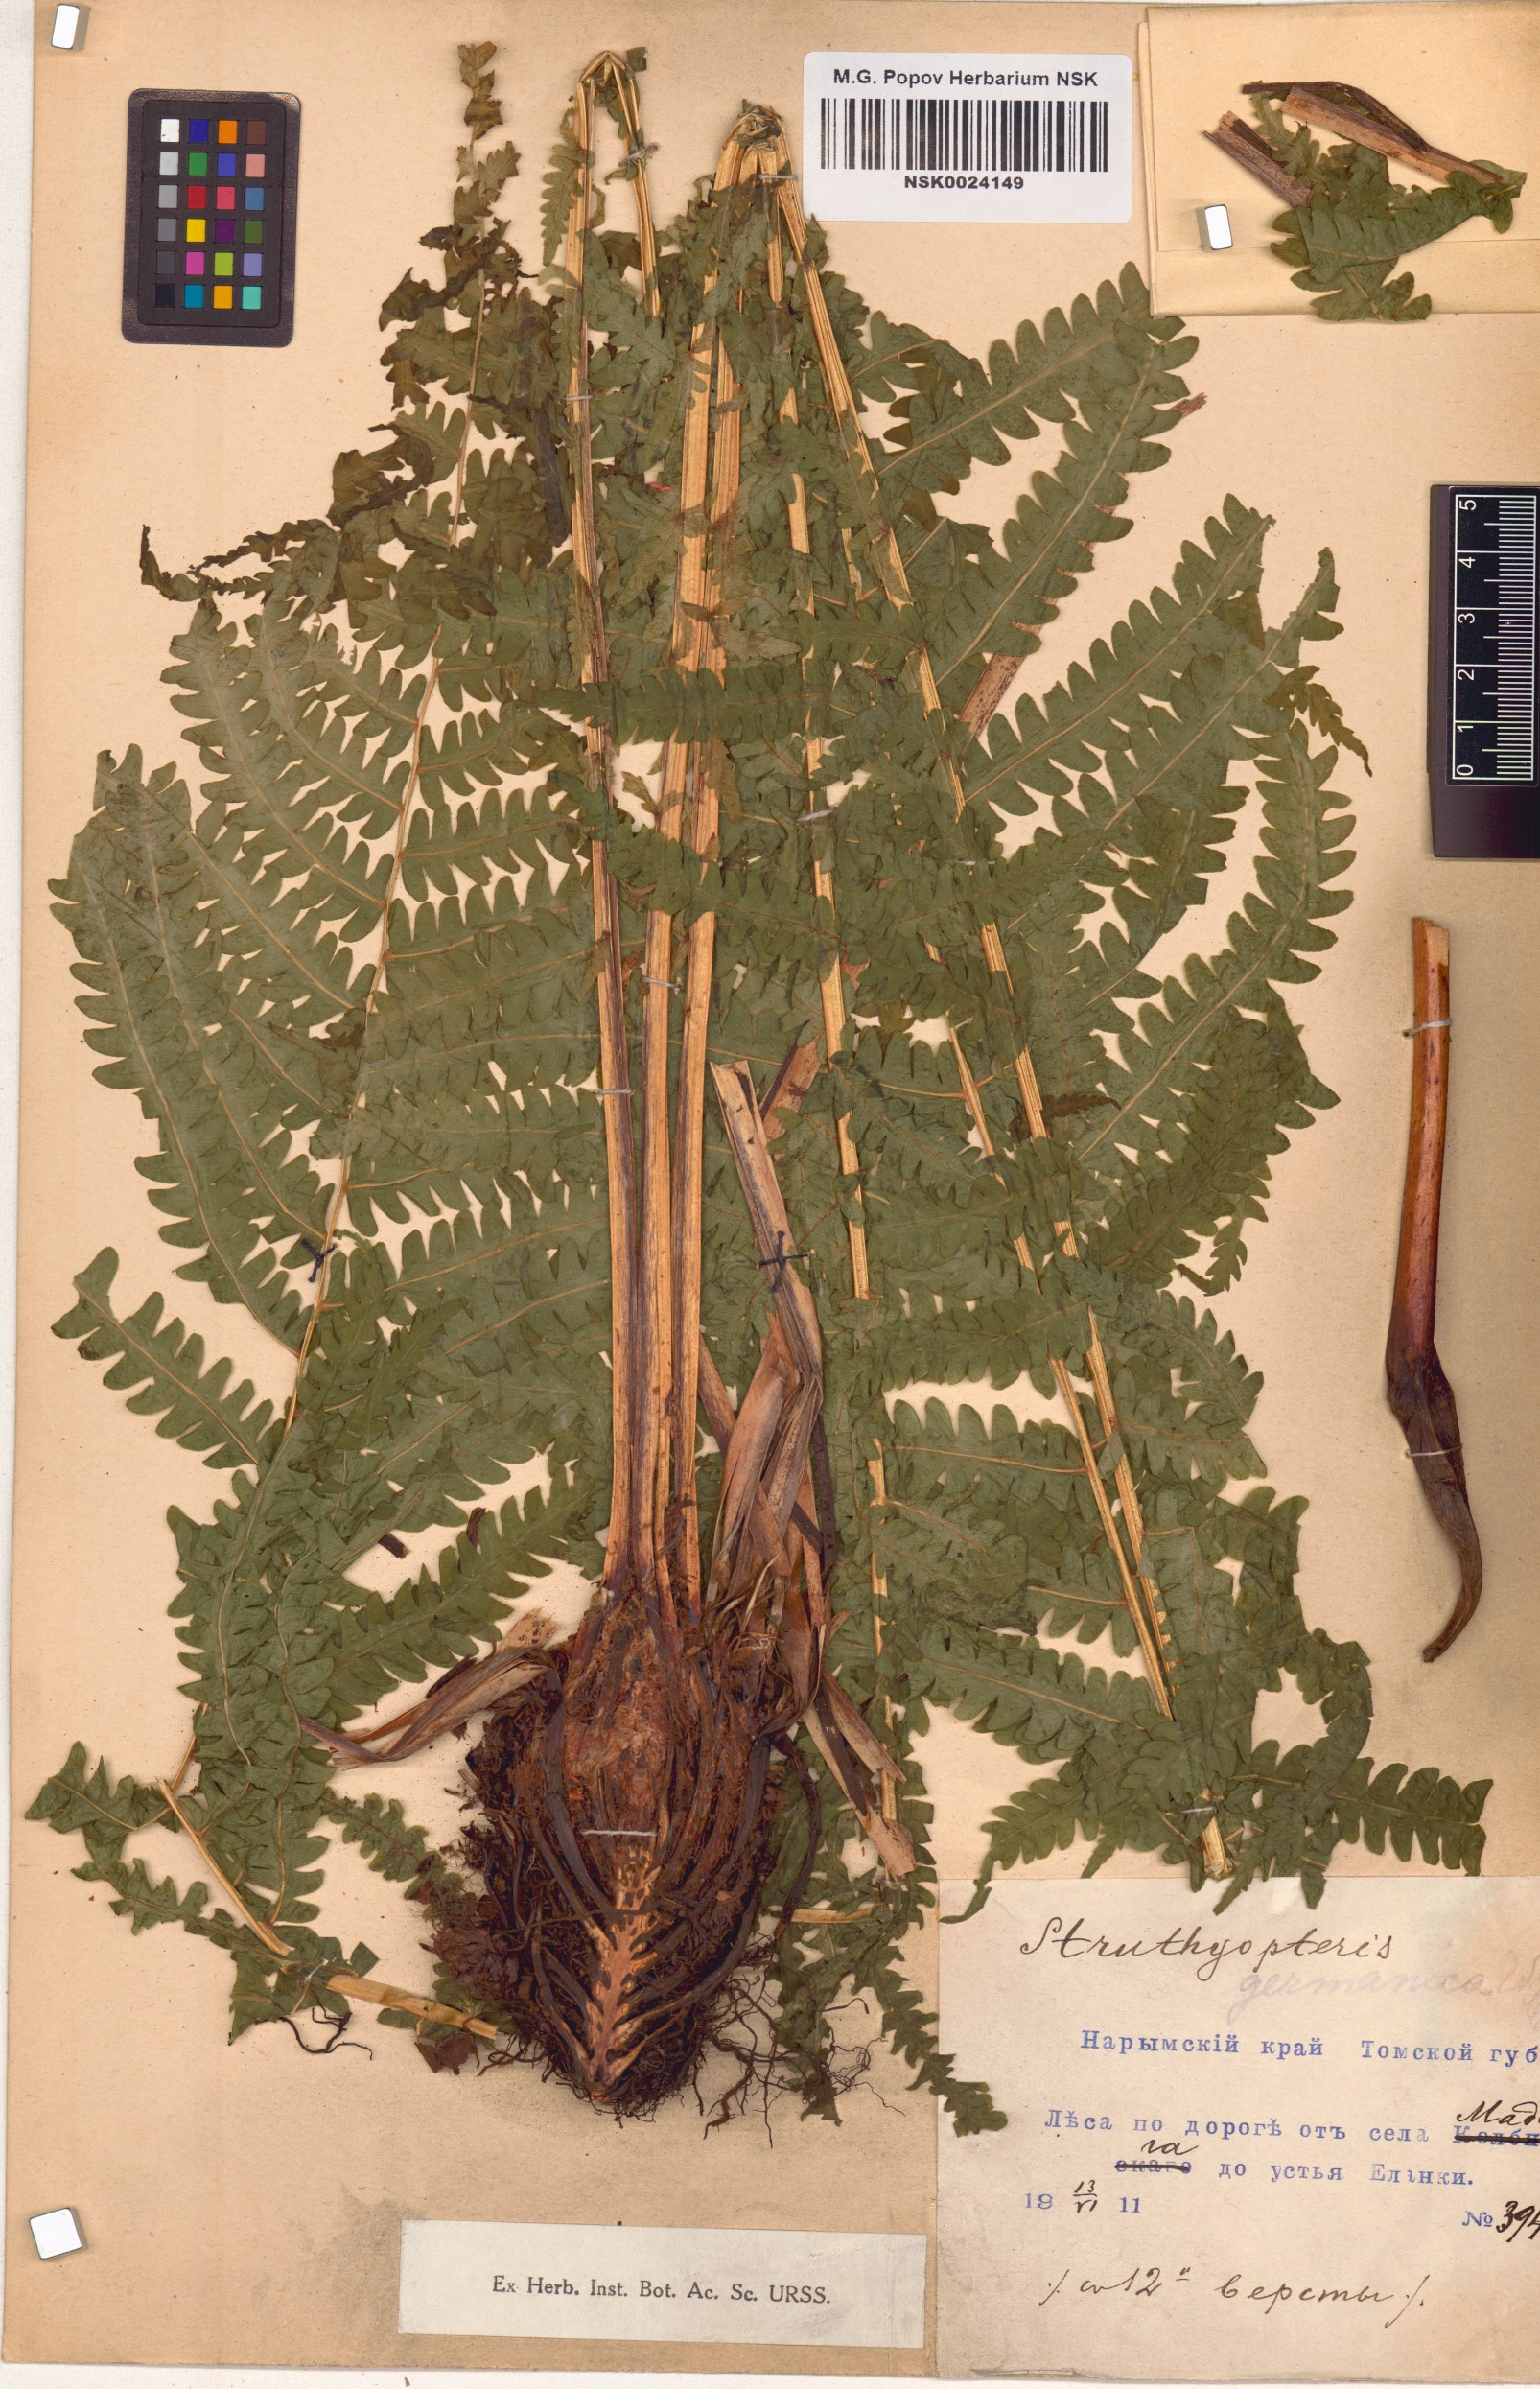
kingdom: Plantae
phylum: Tracheophyta
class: Polypodiopsida
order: Polypodiales
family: Onocleaceae
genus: Matteuccia
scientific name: Matteuccia struthiopteris
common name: Ostrich fern
